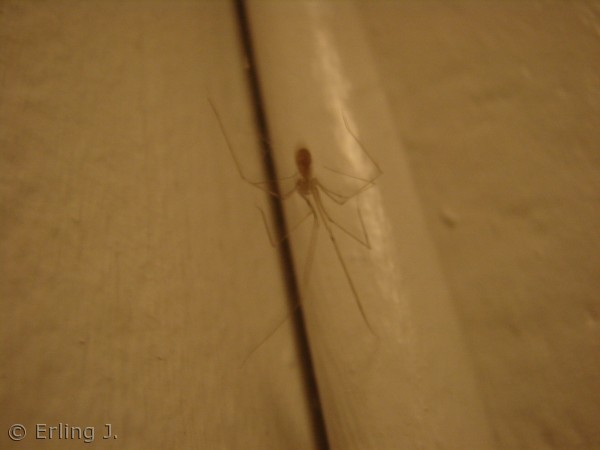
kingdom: Animalia
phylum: Arthropoda
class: Arachnida
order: Araneae
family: Araneidae
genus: Araneus
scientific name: Araneus diadematus
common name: Korsedderkop
